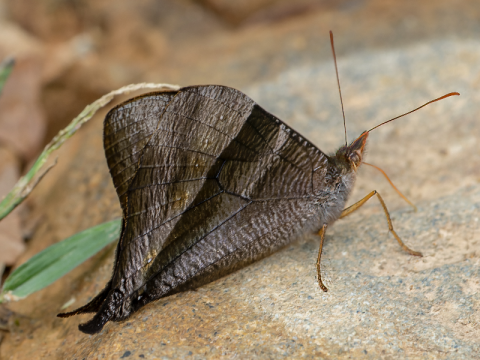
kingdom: Animalia
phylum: Arthropoda
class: Insecta
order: Lepidoptera
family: Nymphalidae
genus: Corades
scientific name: Corades pannonia
